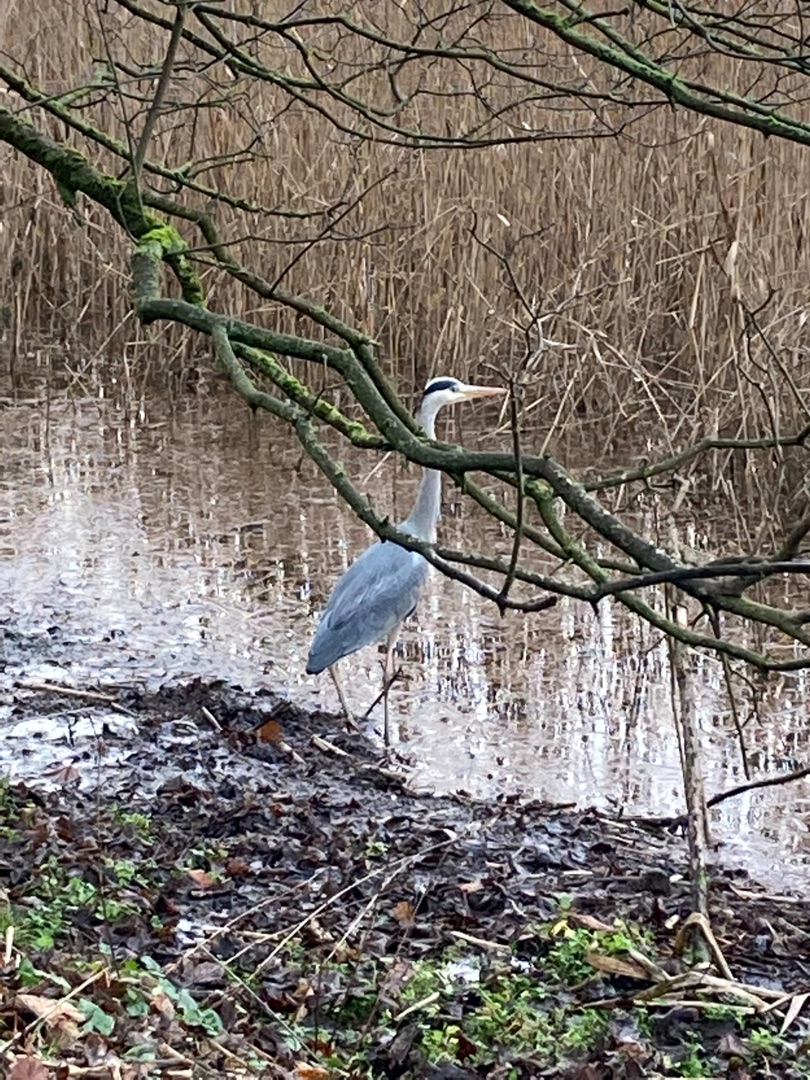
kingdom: Animalia
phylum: Chordata
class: Aves
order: Pelecaniformes
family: Ardeidae
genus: Ardea
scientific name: Ardea cinerea
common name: Fiskehejre
